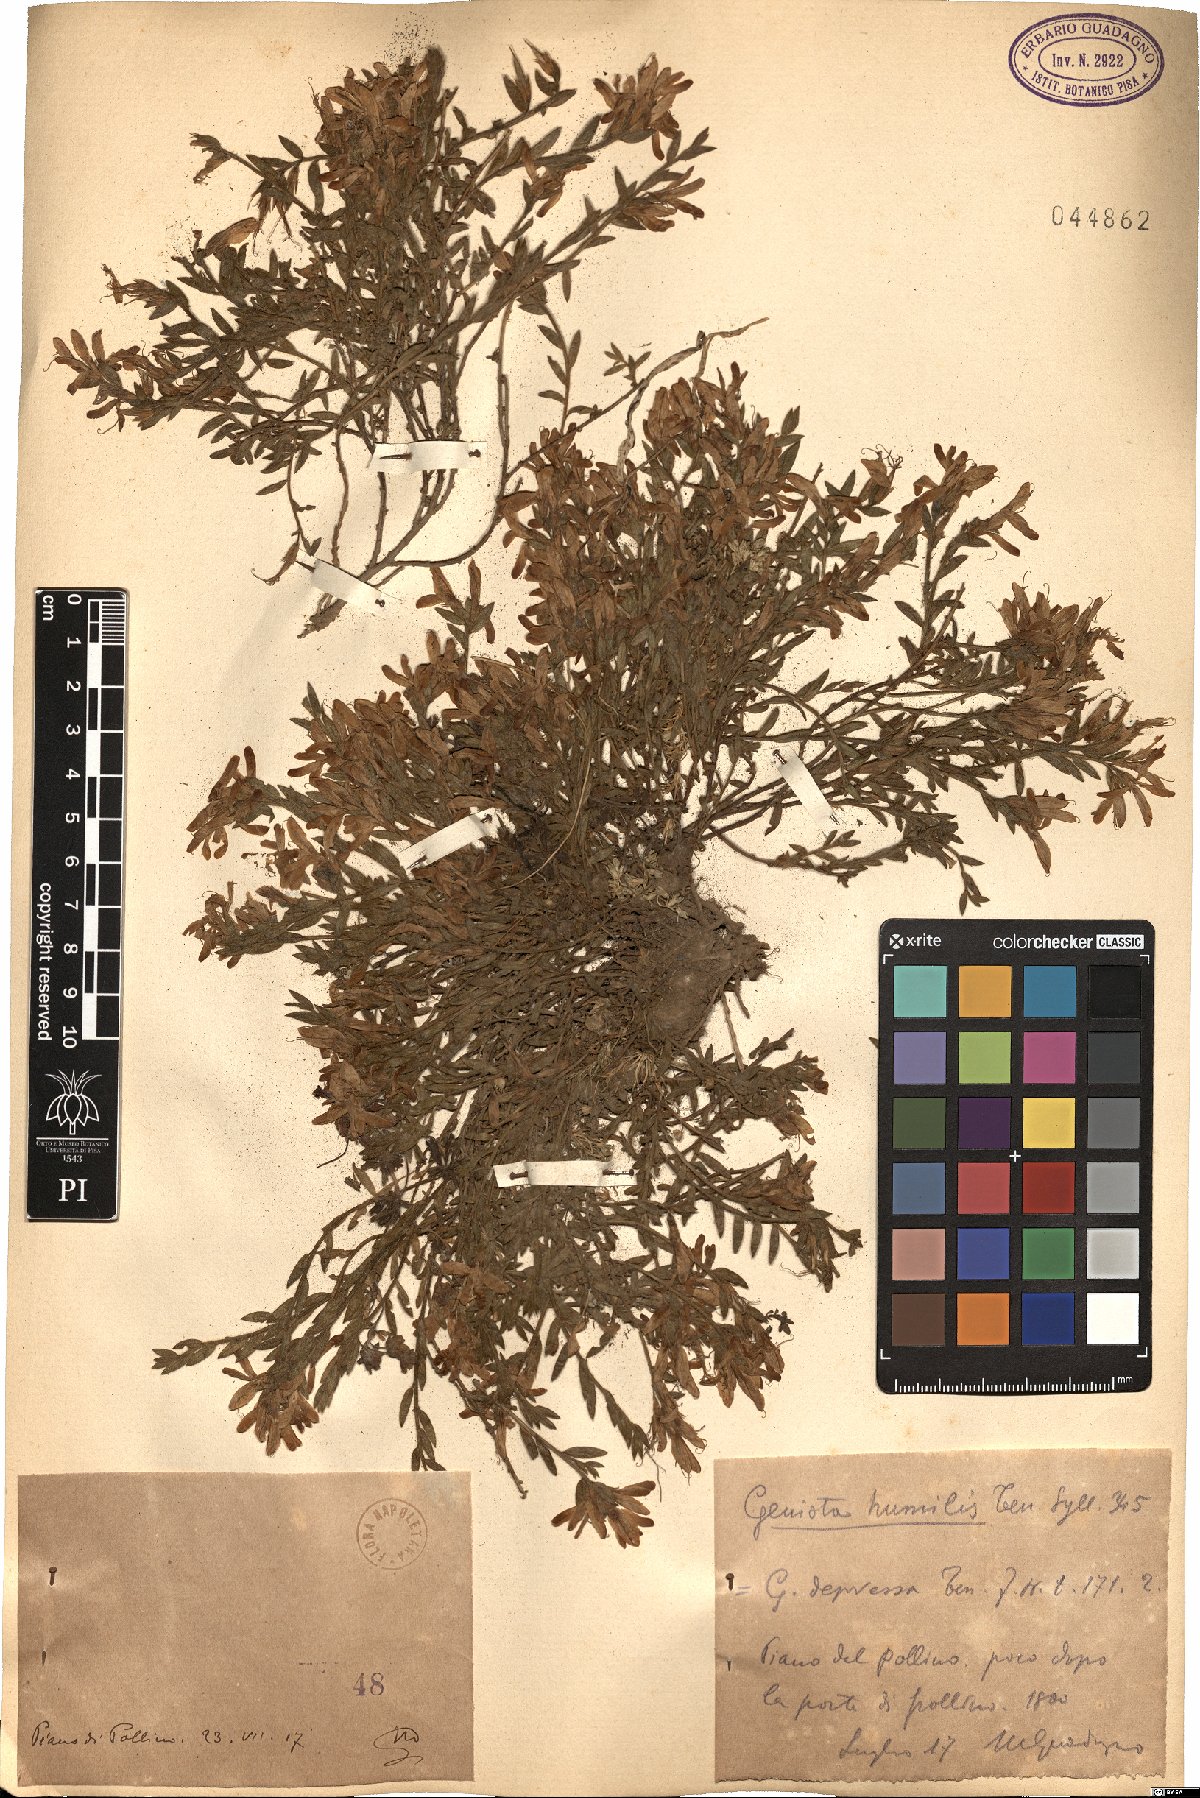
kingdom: Plantae
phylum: Tracheophyta
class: Magnoliopsida
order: Fabales
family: Fabaceae
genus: Genista
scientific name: Genista tinctoria
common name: Dyer's greenweed
